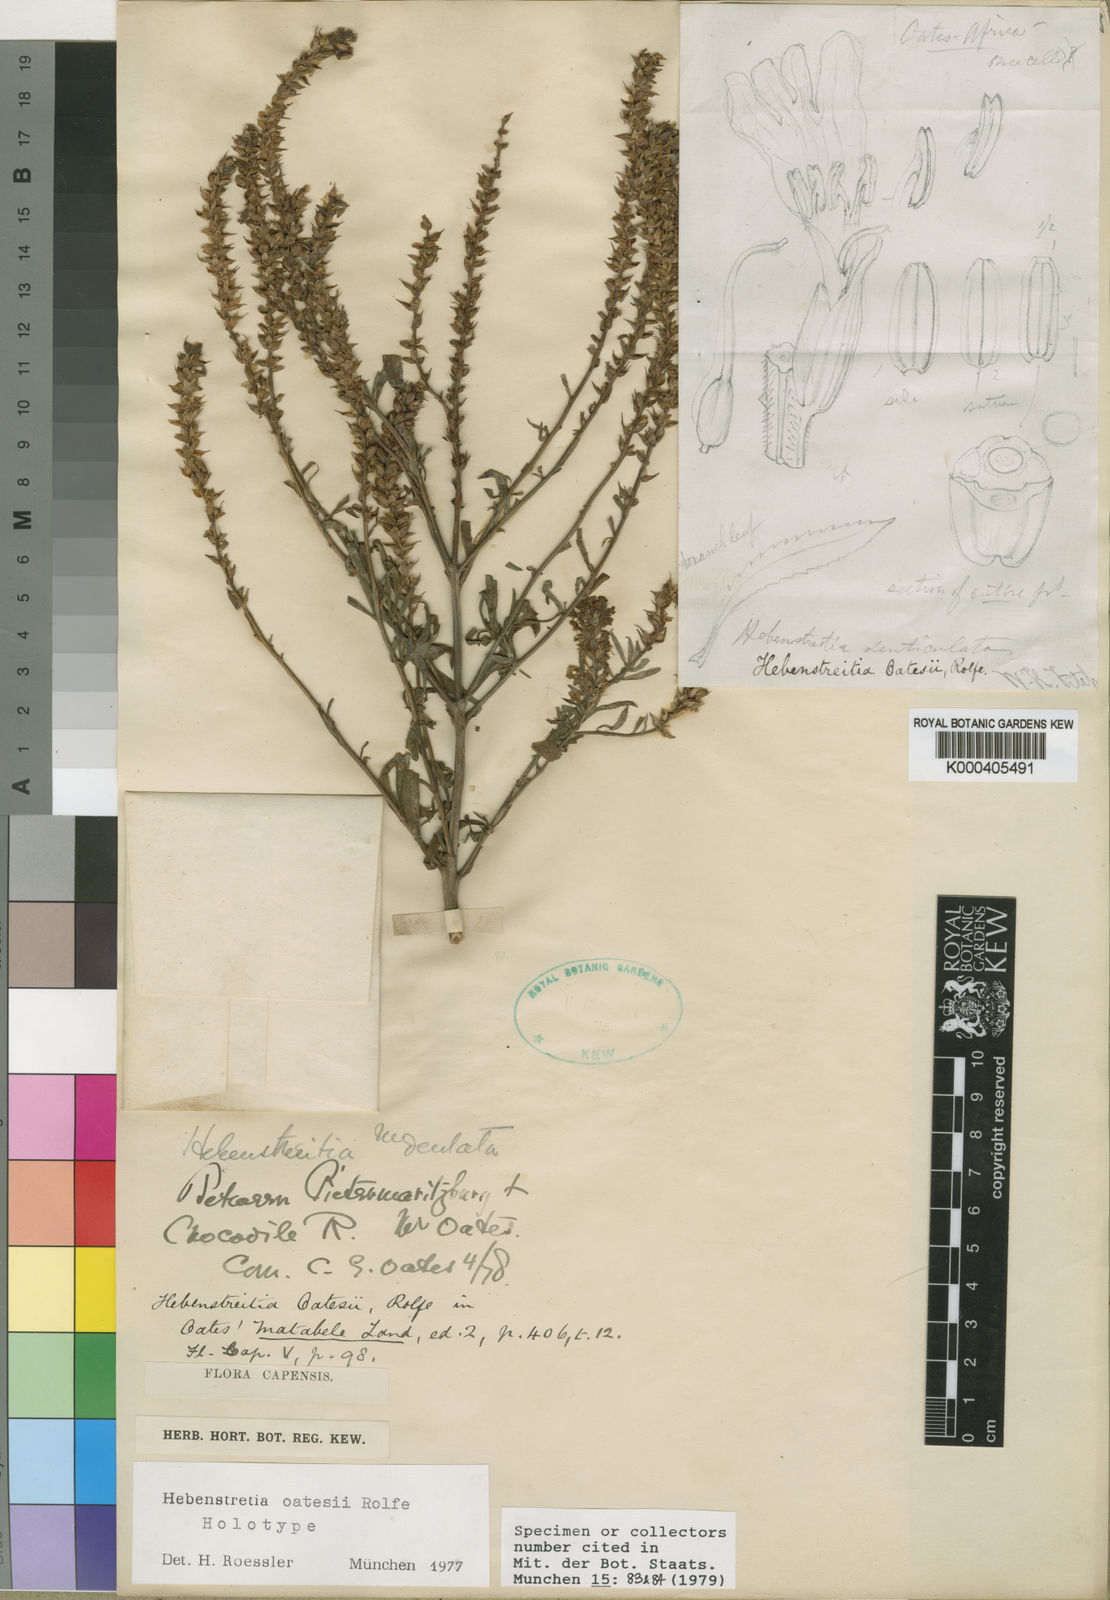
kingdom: Plantae
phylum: Tracheophyta
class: Magnoliopsida
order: Lamiales
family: Scrophulariaceae
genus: Hebenstretia
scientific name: Hebenstretia oatesii
